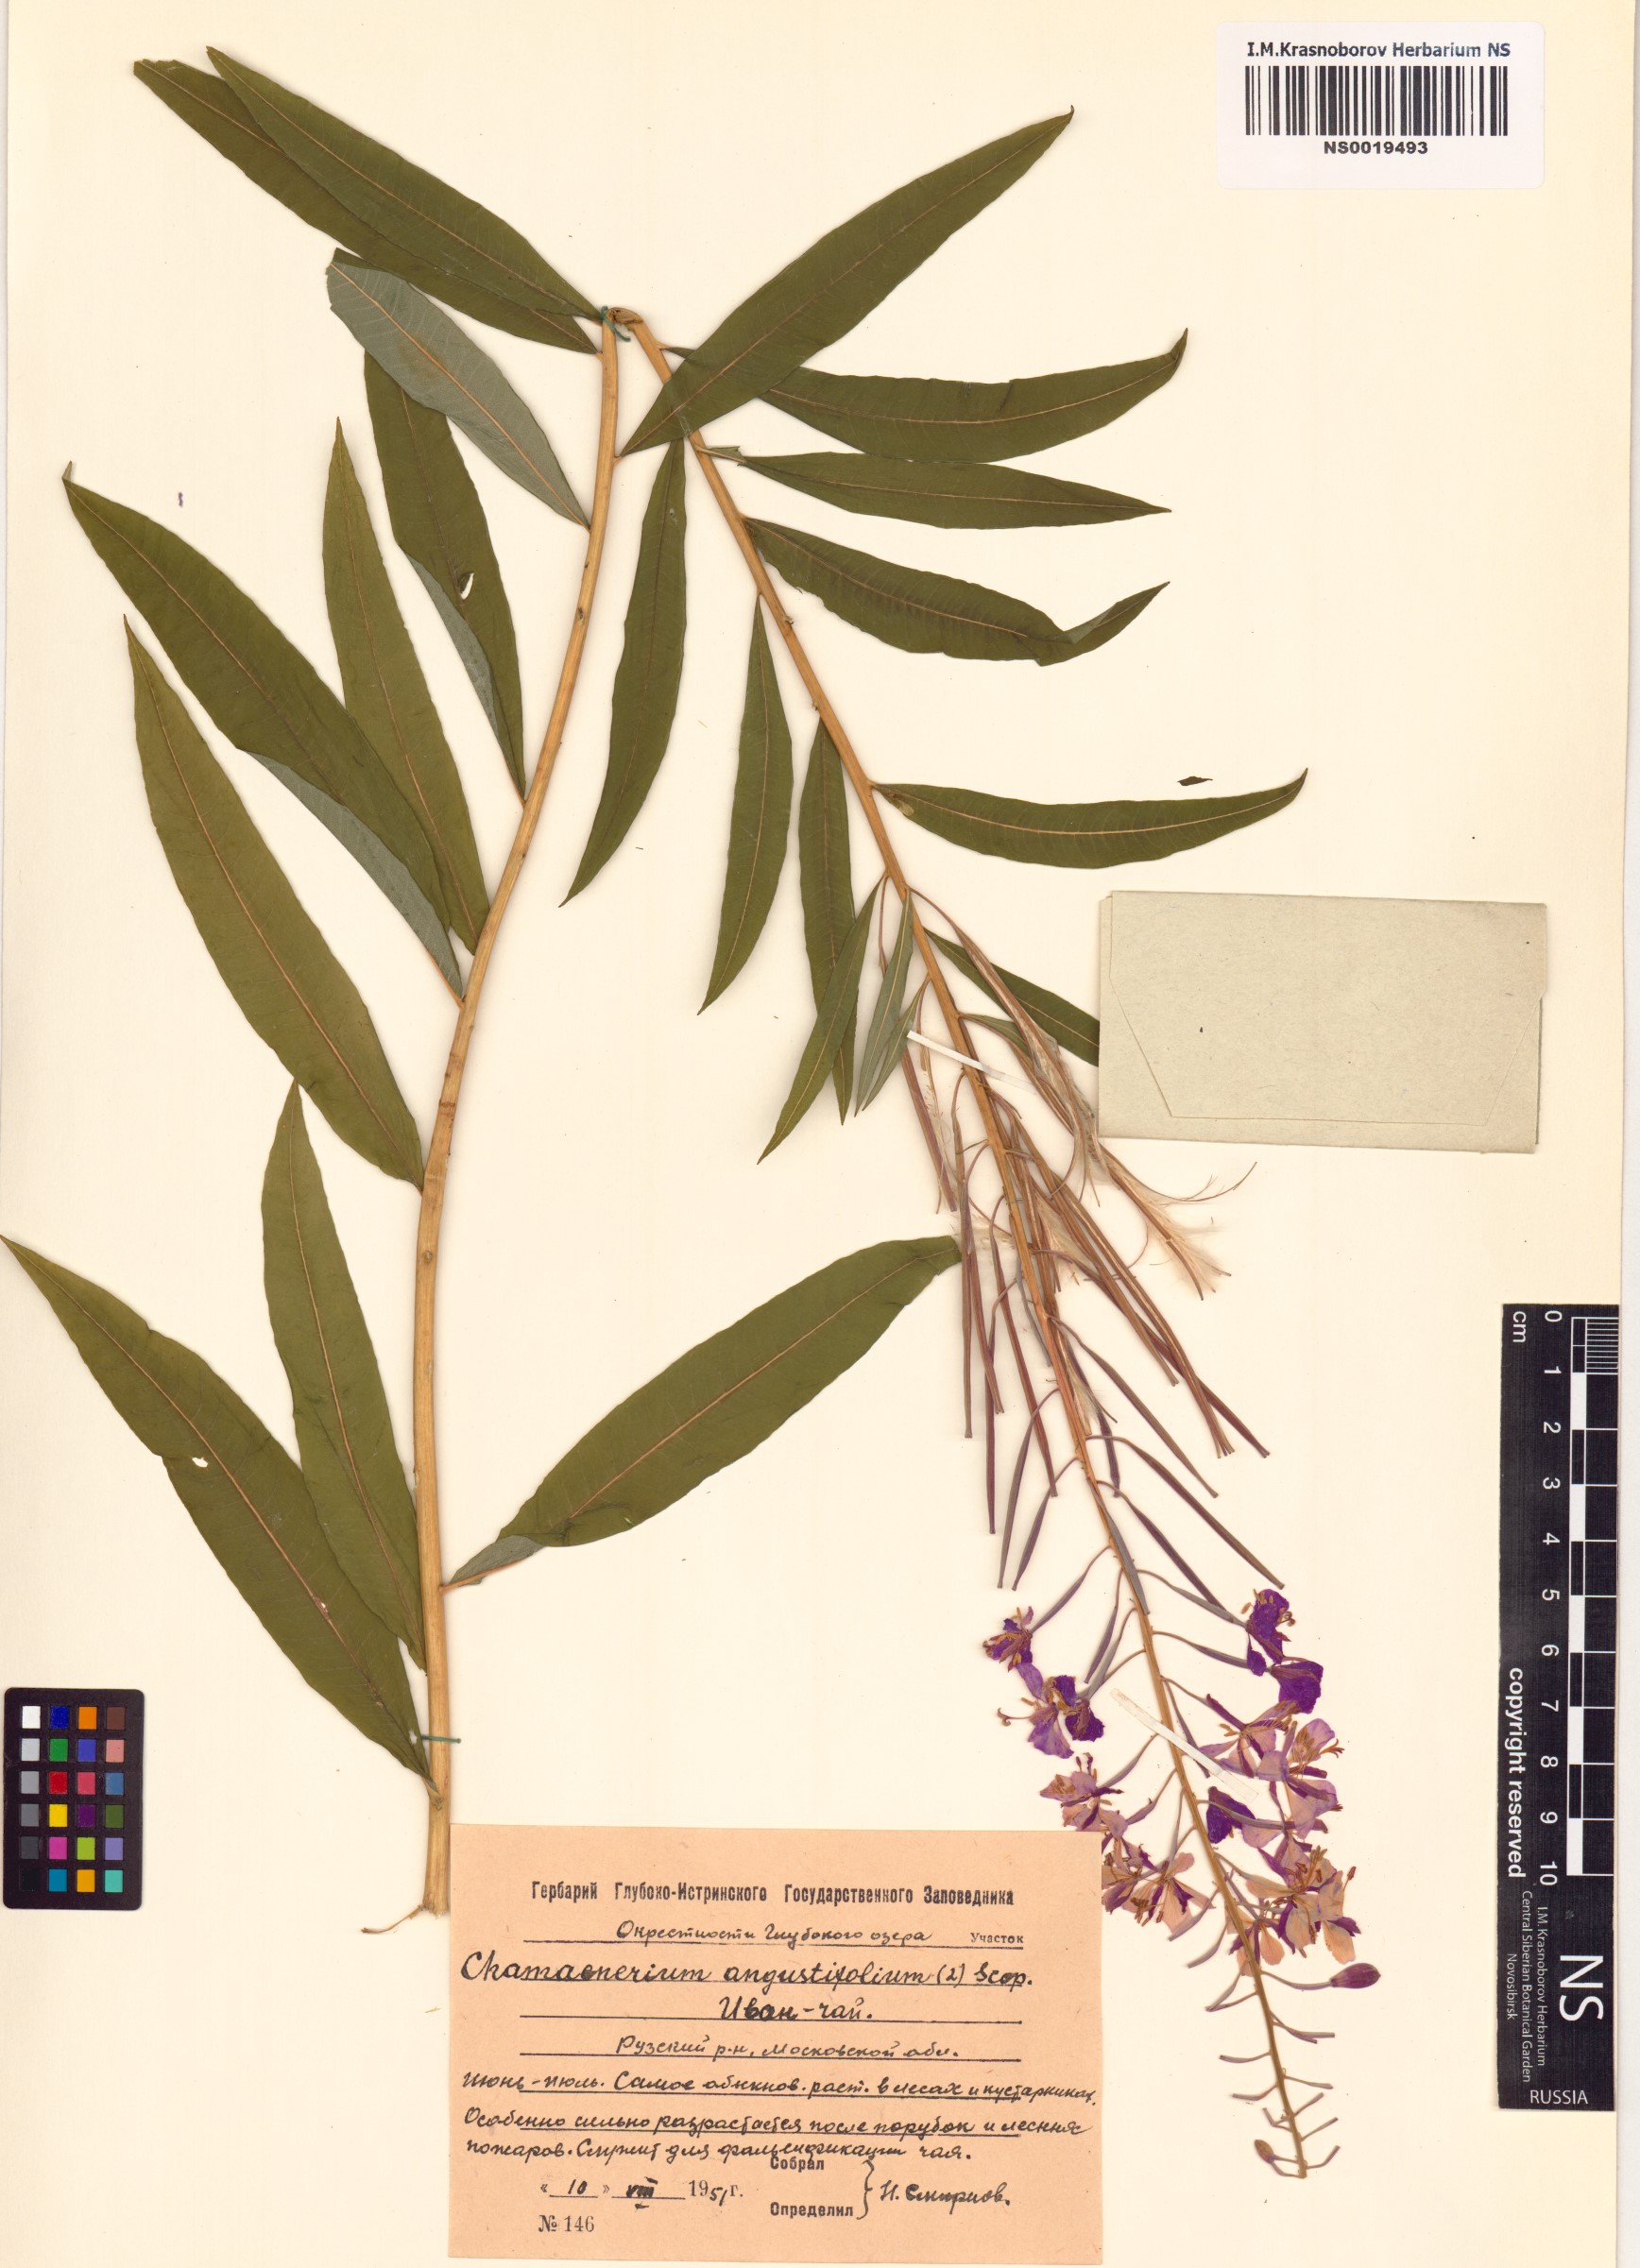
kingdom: Plantae
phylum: Tracheophyta
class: Magnoliopsida
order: Myrtales
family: Onagraceae
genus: Chamaenerion
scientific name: Chamaenerion angustifolium
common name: Fireweed
